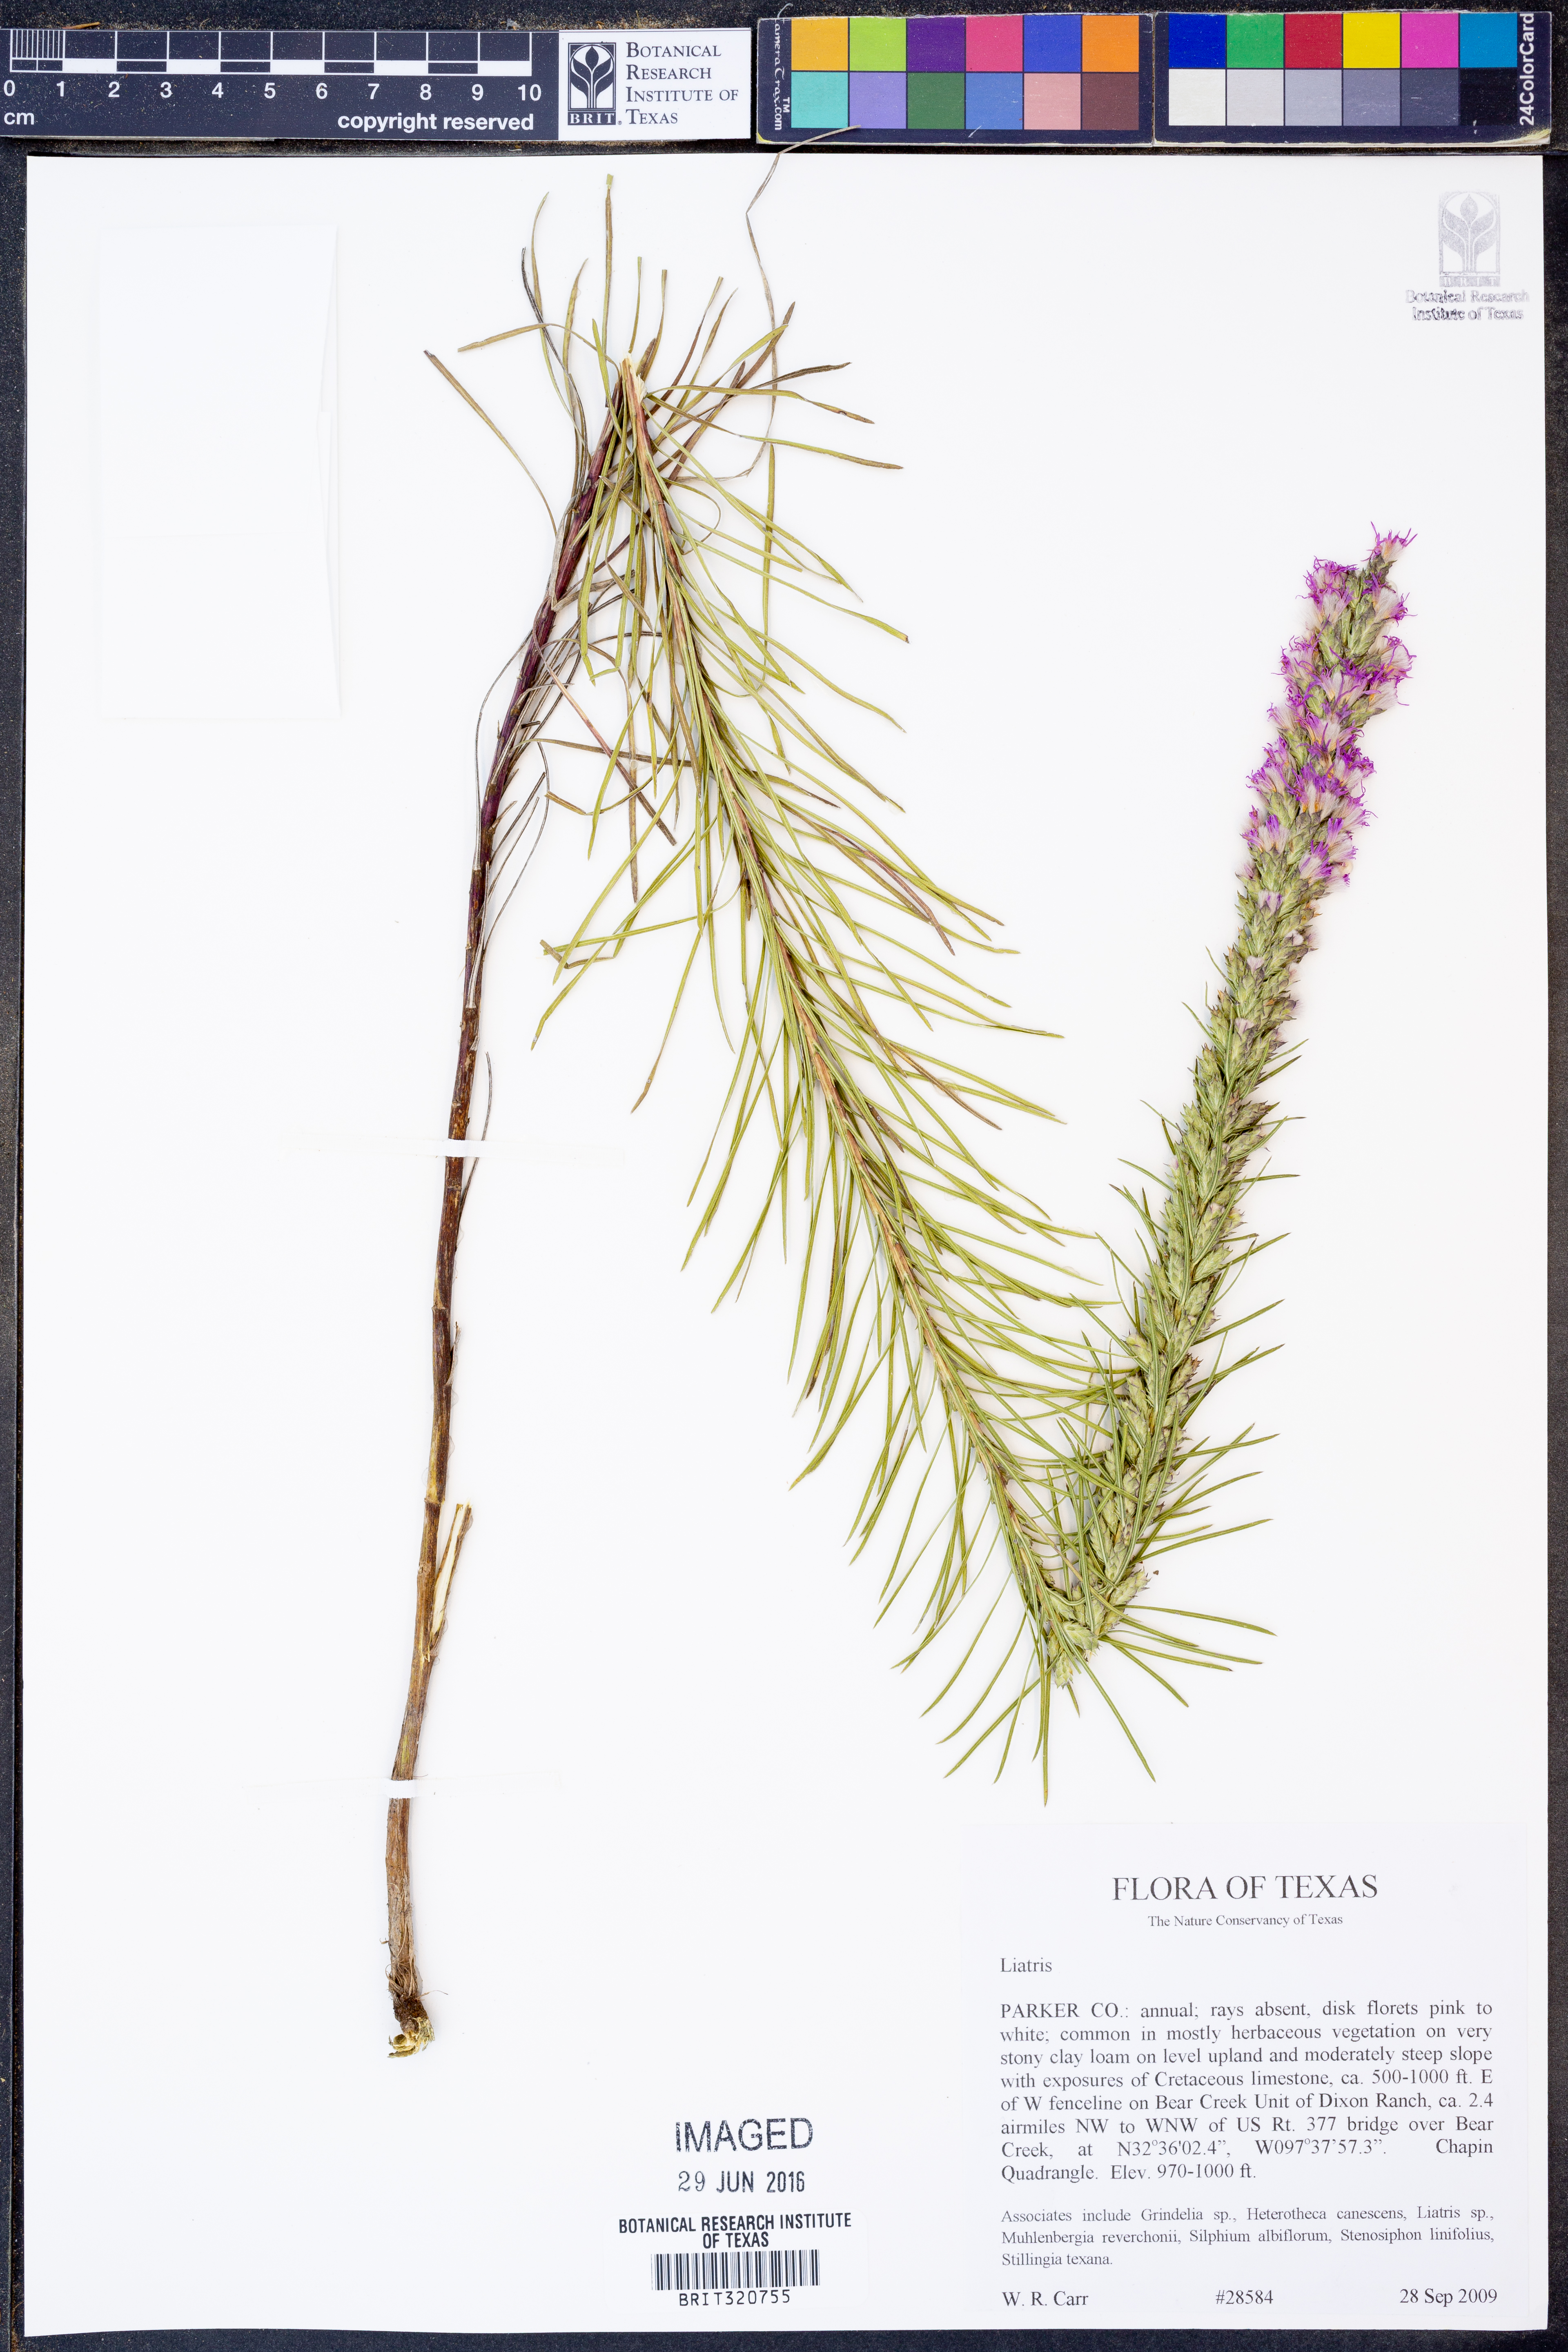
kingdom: Plantae
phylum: Tracheophyta
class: Magnoliopsida
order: Asterales
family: Asteraceae
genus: Liatris
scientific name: Liatris
